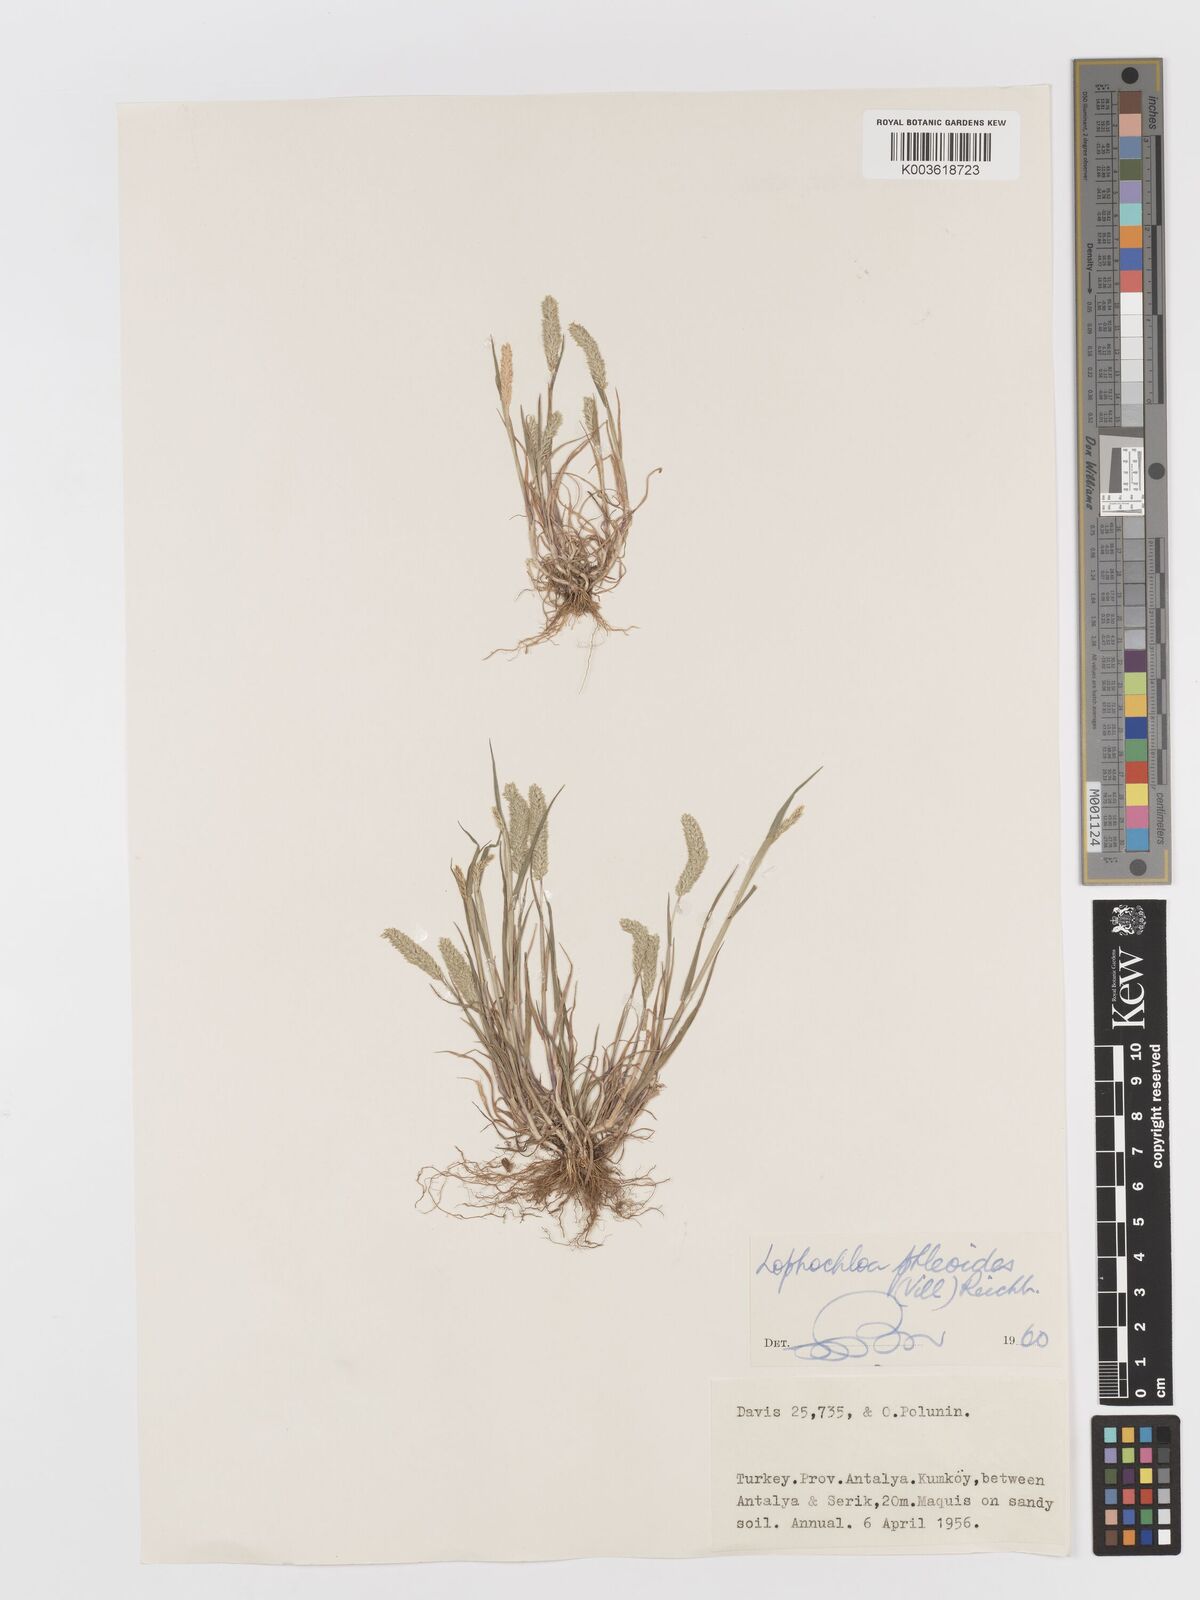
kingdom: Plantae
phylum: Tracheophyta
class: Liliopsida
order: Poales
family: Poaceae
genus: Rostraria
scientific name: Rostraria cristata
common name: Mediterranean hair-grass
